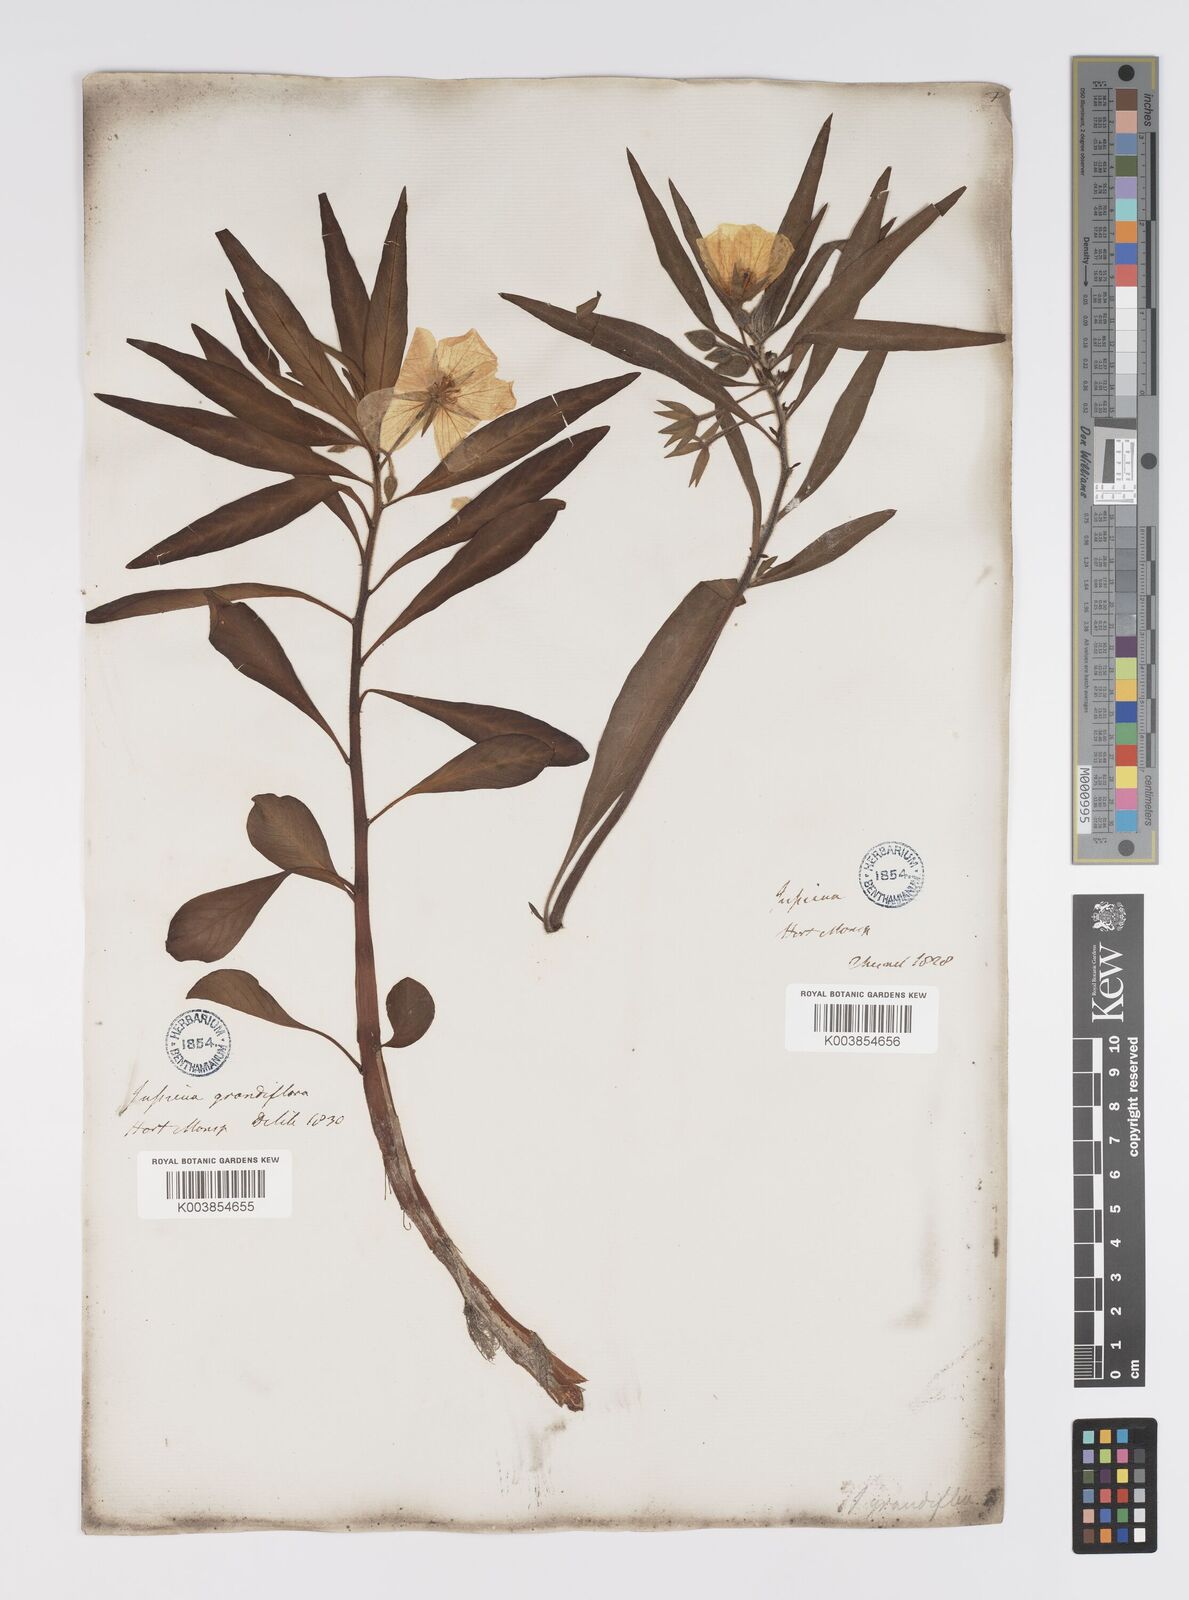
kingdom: Plantae
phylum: Tracheophyta
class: Magnoliopsida
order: Myrtales
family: Onagraceae
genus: Ludwigia
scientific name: Ludwigia
